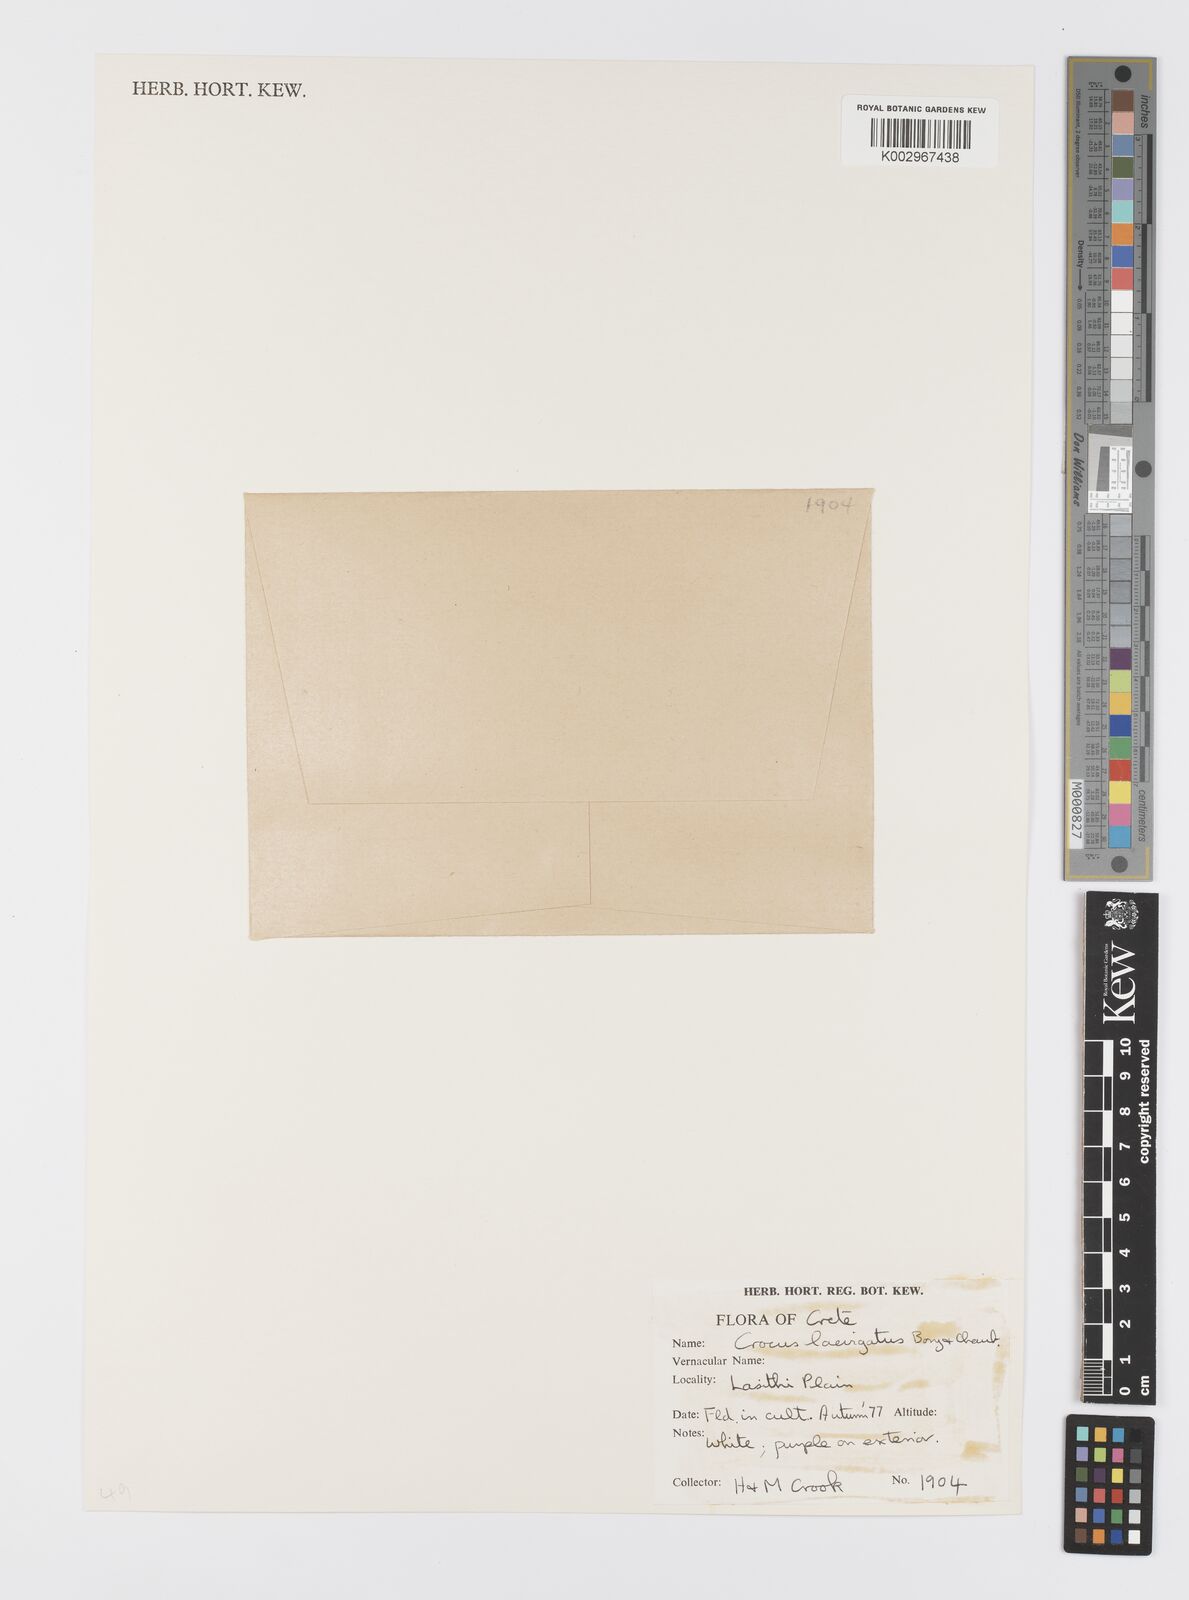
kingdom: Plantae
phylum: Tracheophyta
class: Liliopsida
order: Asparagales
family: Iridaceae
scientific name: Iridaceae
